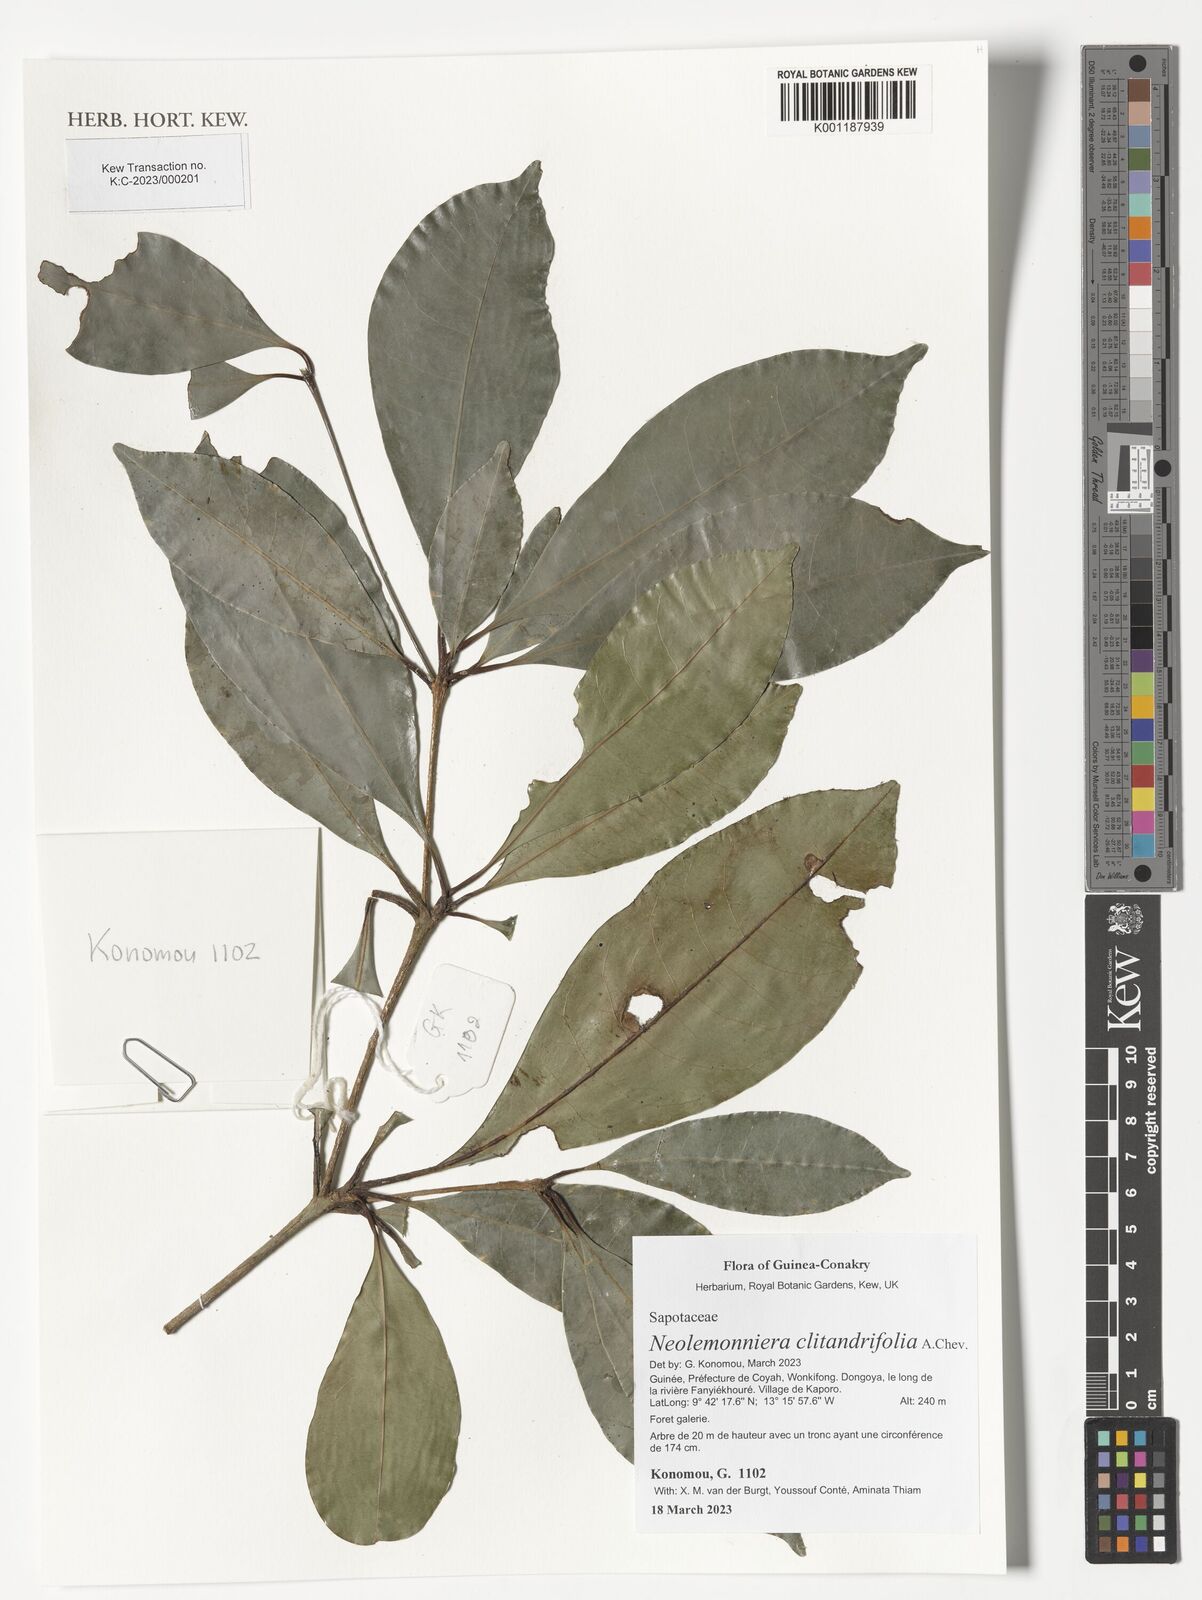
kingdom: Plantae
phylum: Tracheophyta
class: Magnoliopsida
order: Ericales
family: Sapotaceae
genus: Neolemonniera
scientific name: Neolemonniera clitandrifolia
